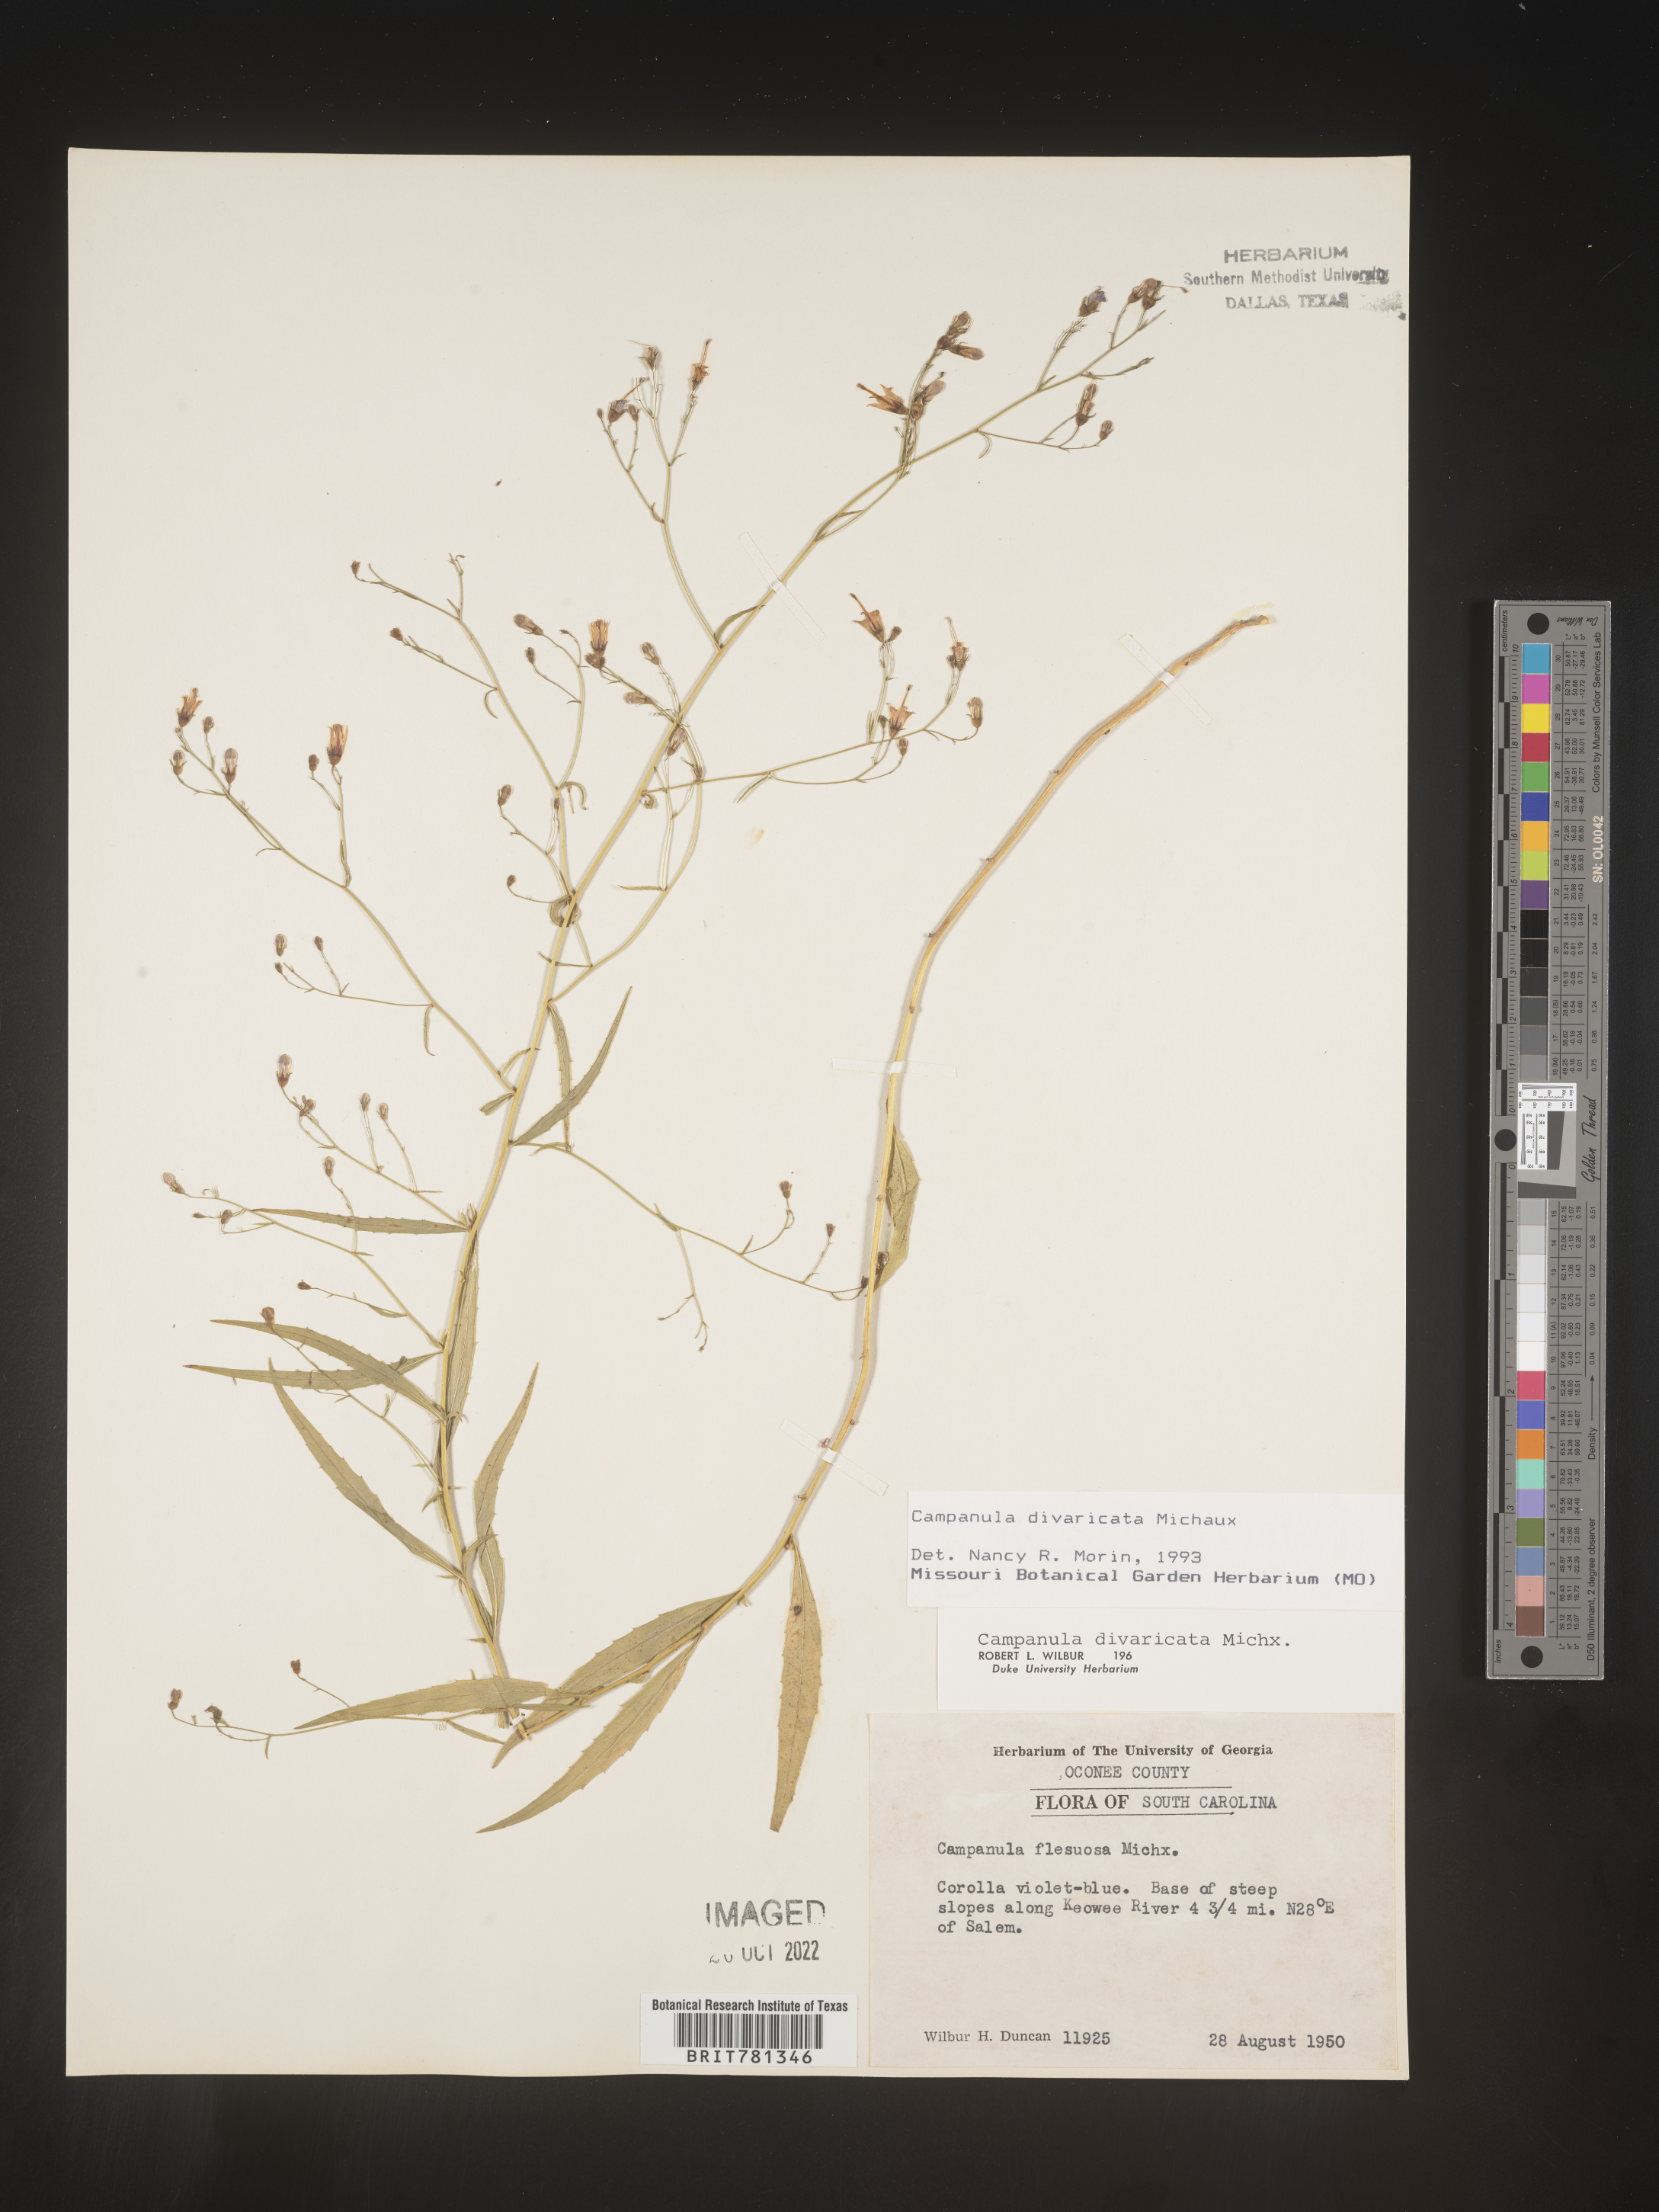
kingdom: Plantae
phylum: Tracheophyta
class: Magnoliopsida
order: Asterales
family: Campanulaceae
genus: Campanula
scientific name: Campanula divaricata
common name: Appalachian bellflower
